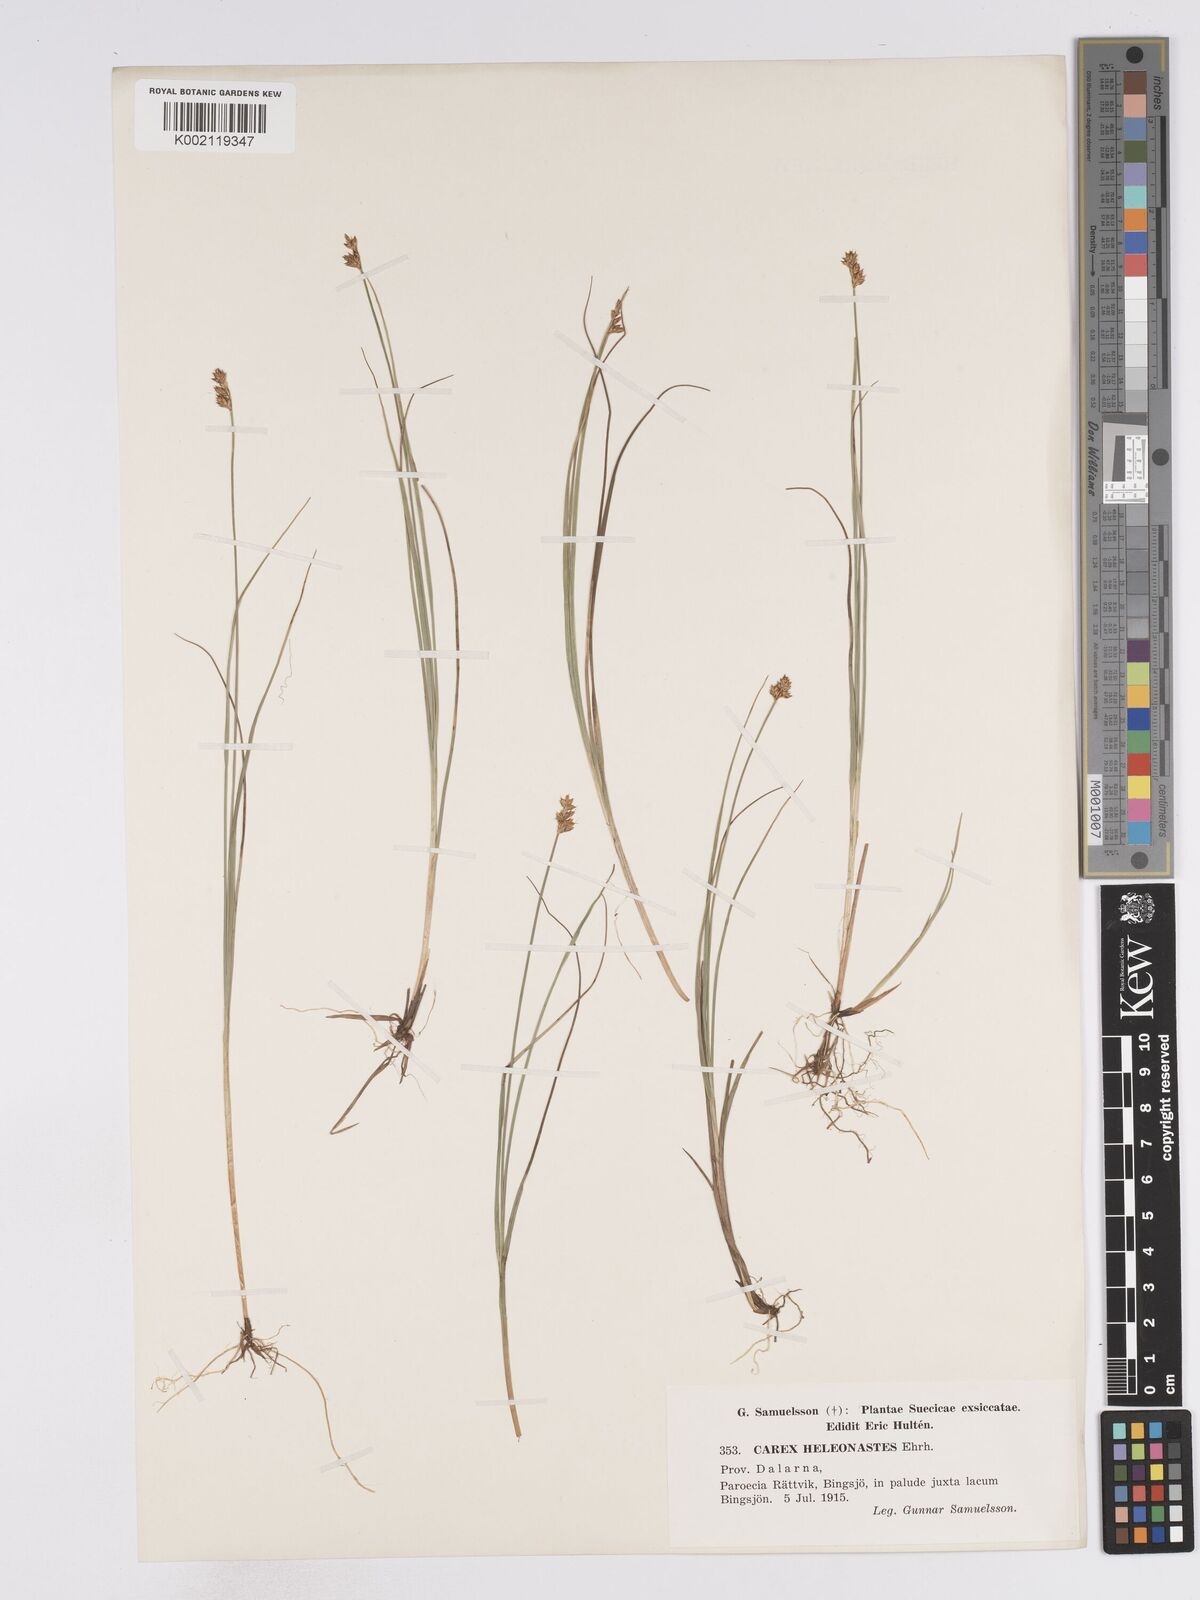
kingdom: Plantae
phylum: Tracheophyta
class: Liliopsida
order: Poales
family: Cyperaceae
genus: Carex
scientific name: Carex heleonastes
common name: Hudson bay sedge
